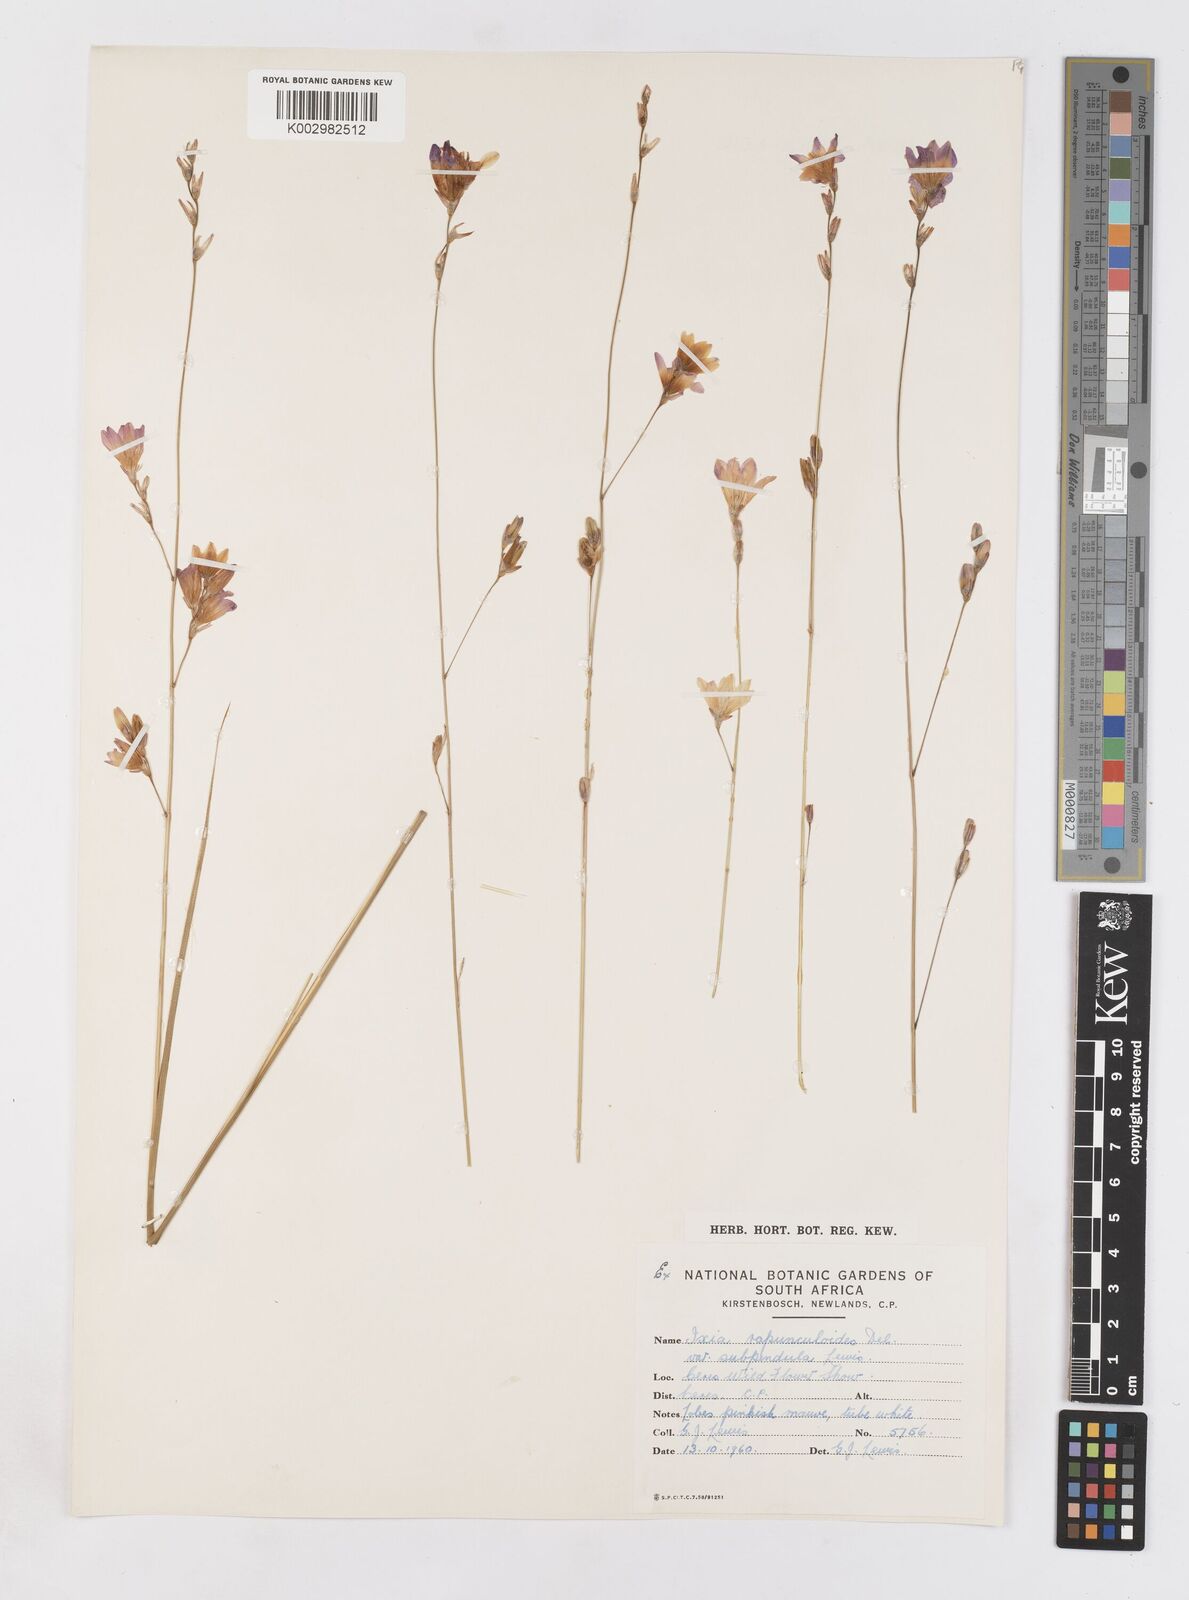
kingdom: Plantae
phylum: Tracheophyta
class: Liliopsida
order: Asparagales
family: Iridaceae
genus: Ixia
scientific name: Ixia rapunculoides
